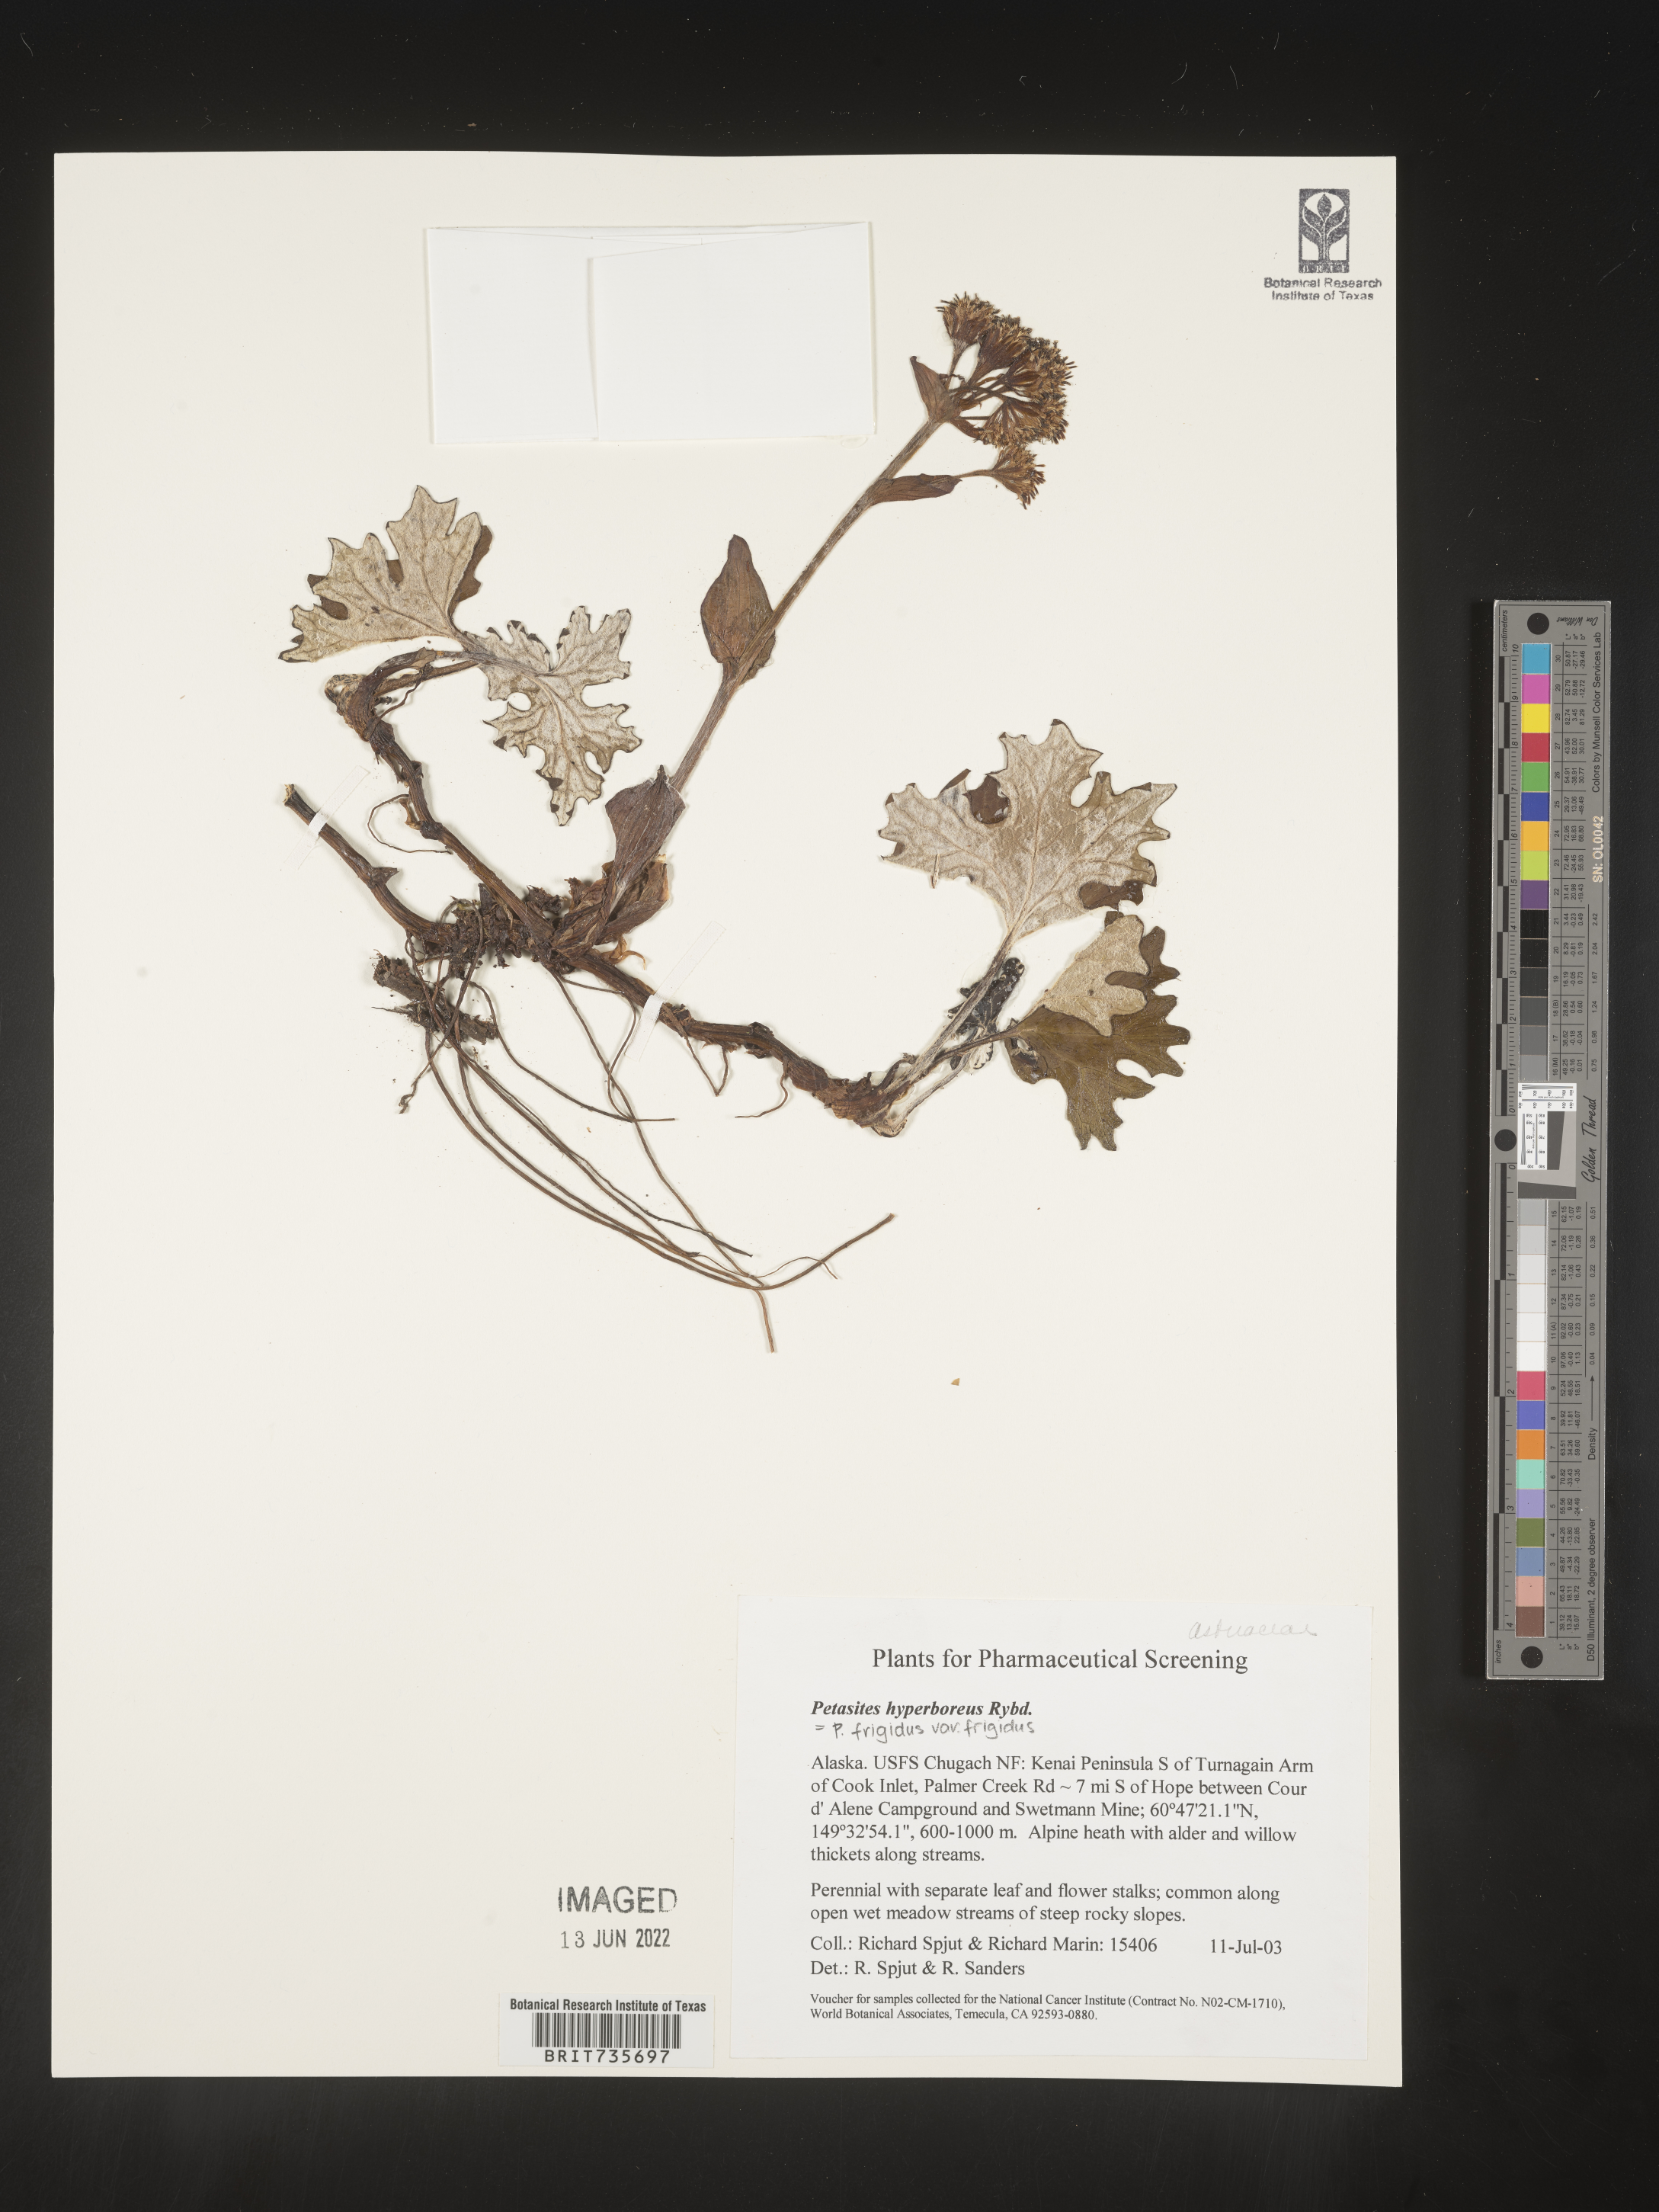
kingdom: Plantae
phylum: Tracheophyta
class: Magnoliopsida
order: Asterales
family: Asteraceae
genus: Petasites
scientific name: Petasites frigidus
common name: Arctic butterbur
